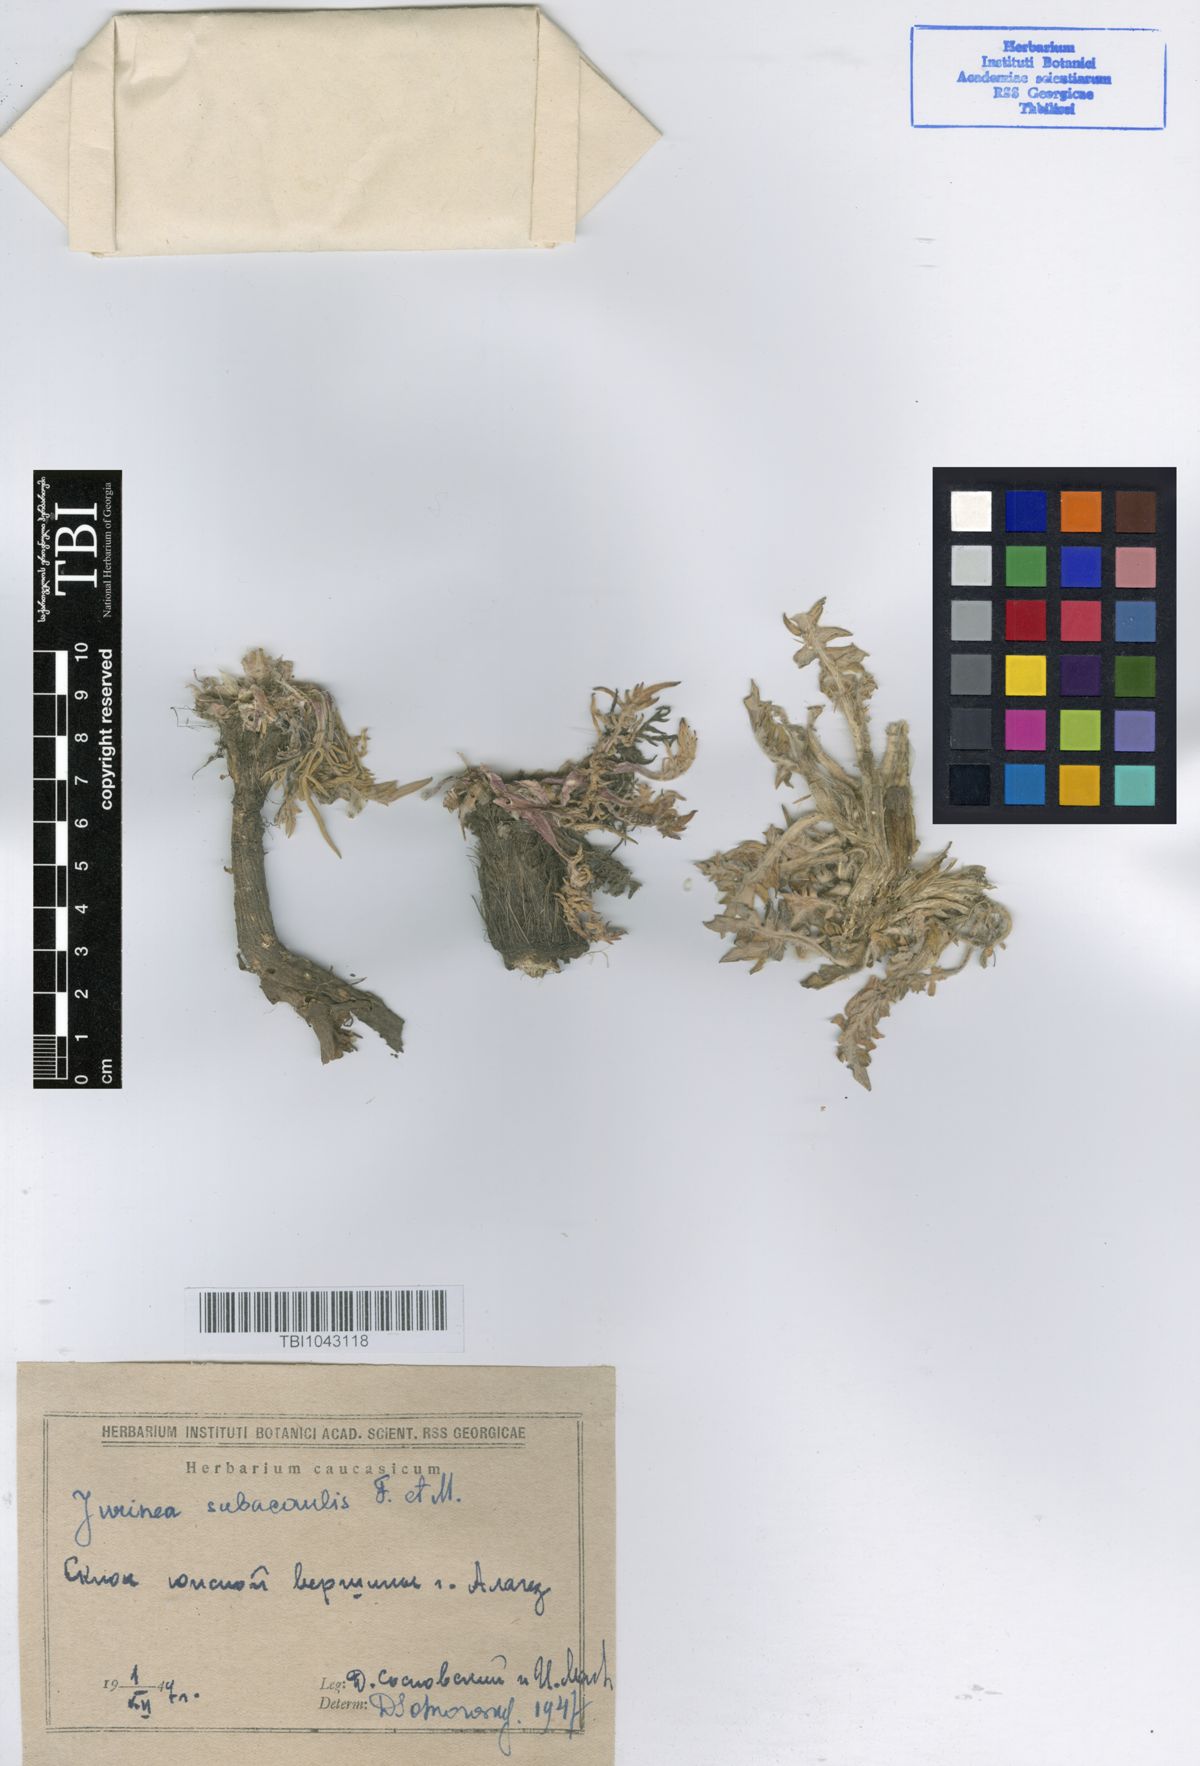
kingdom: Plantae
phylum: Tracheophyta
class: Magnoliopsida
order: Asterales
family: Asteraceae
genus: Jurinea
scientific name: Jurinea moschus
